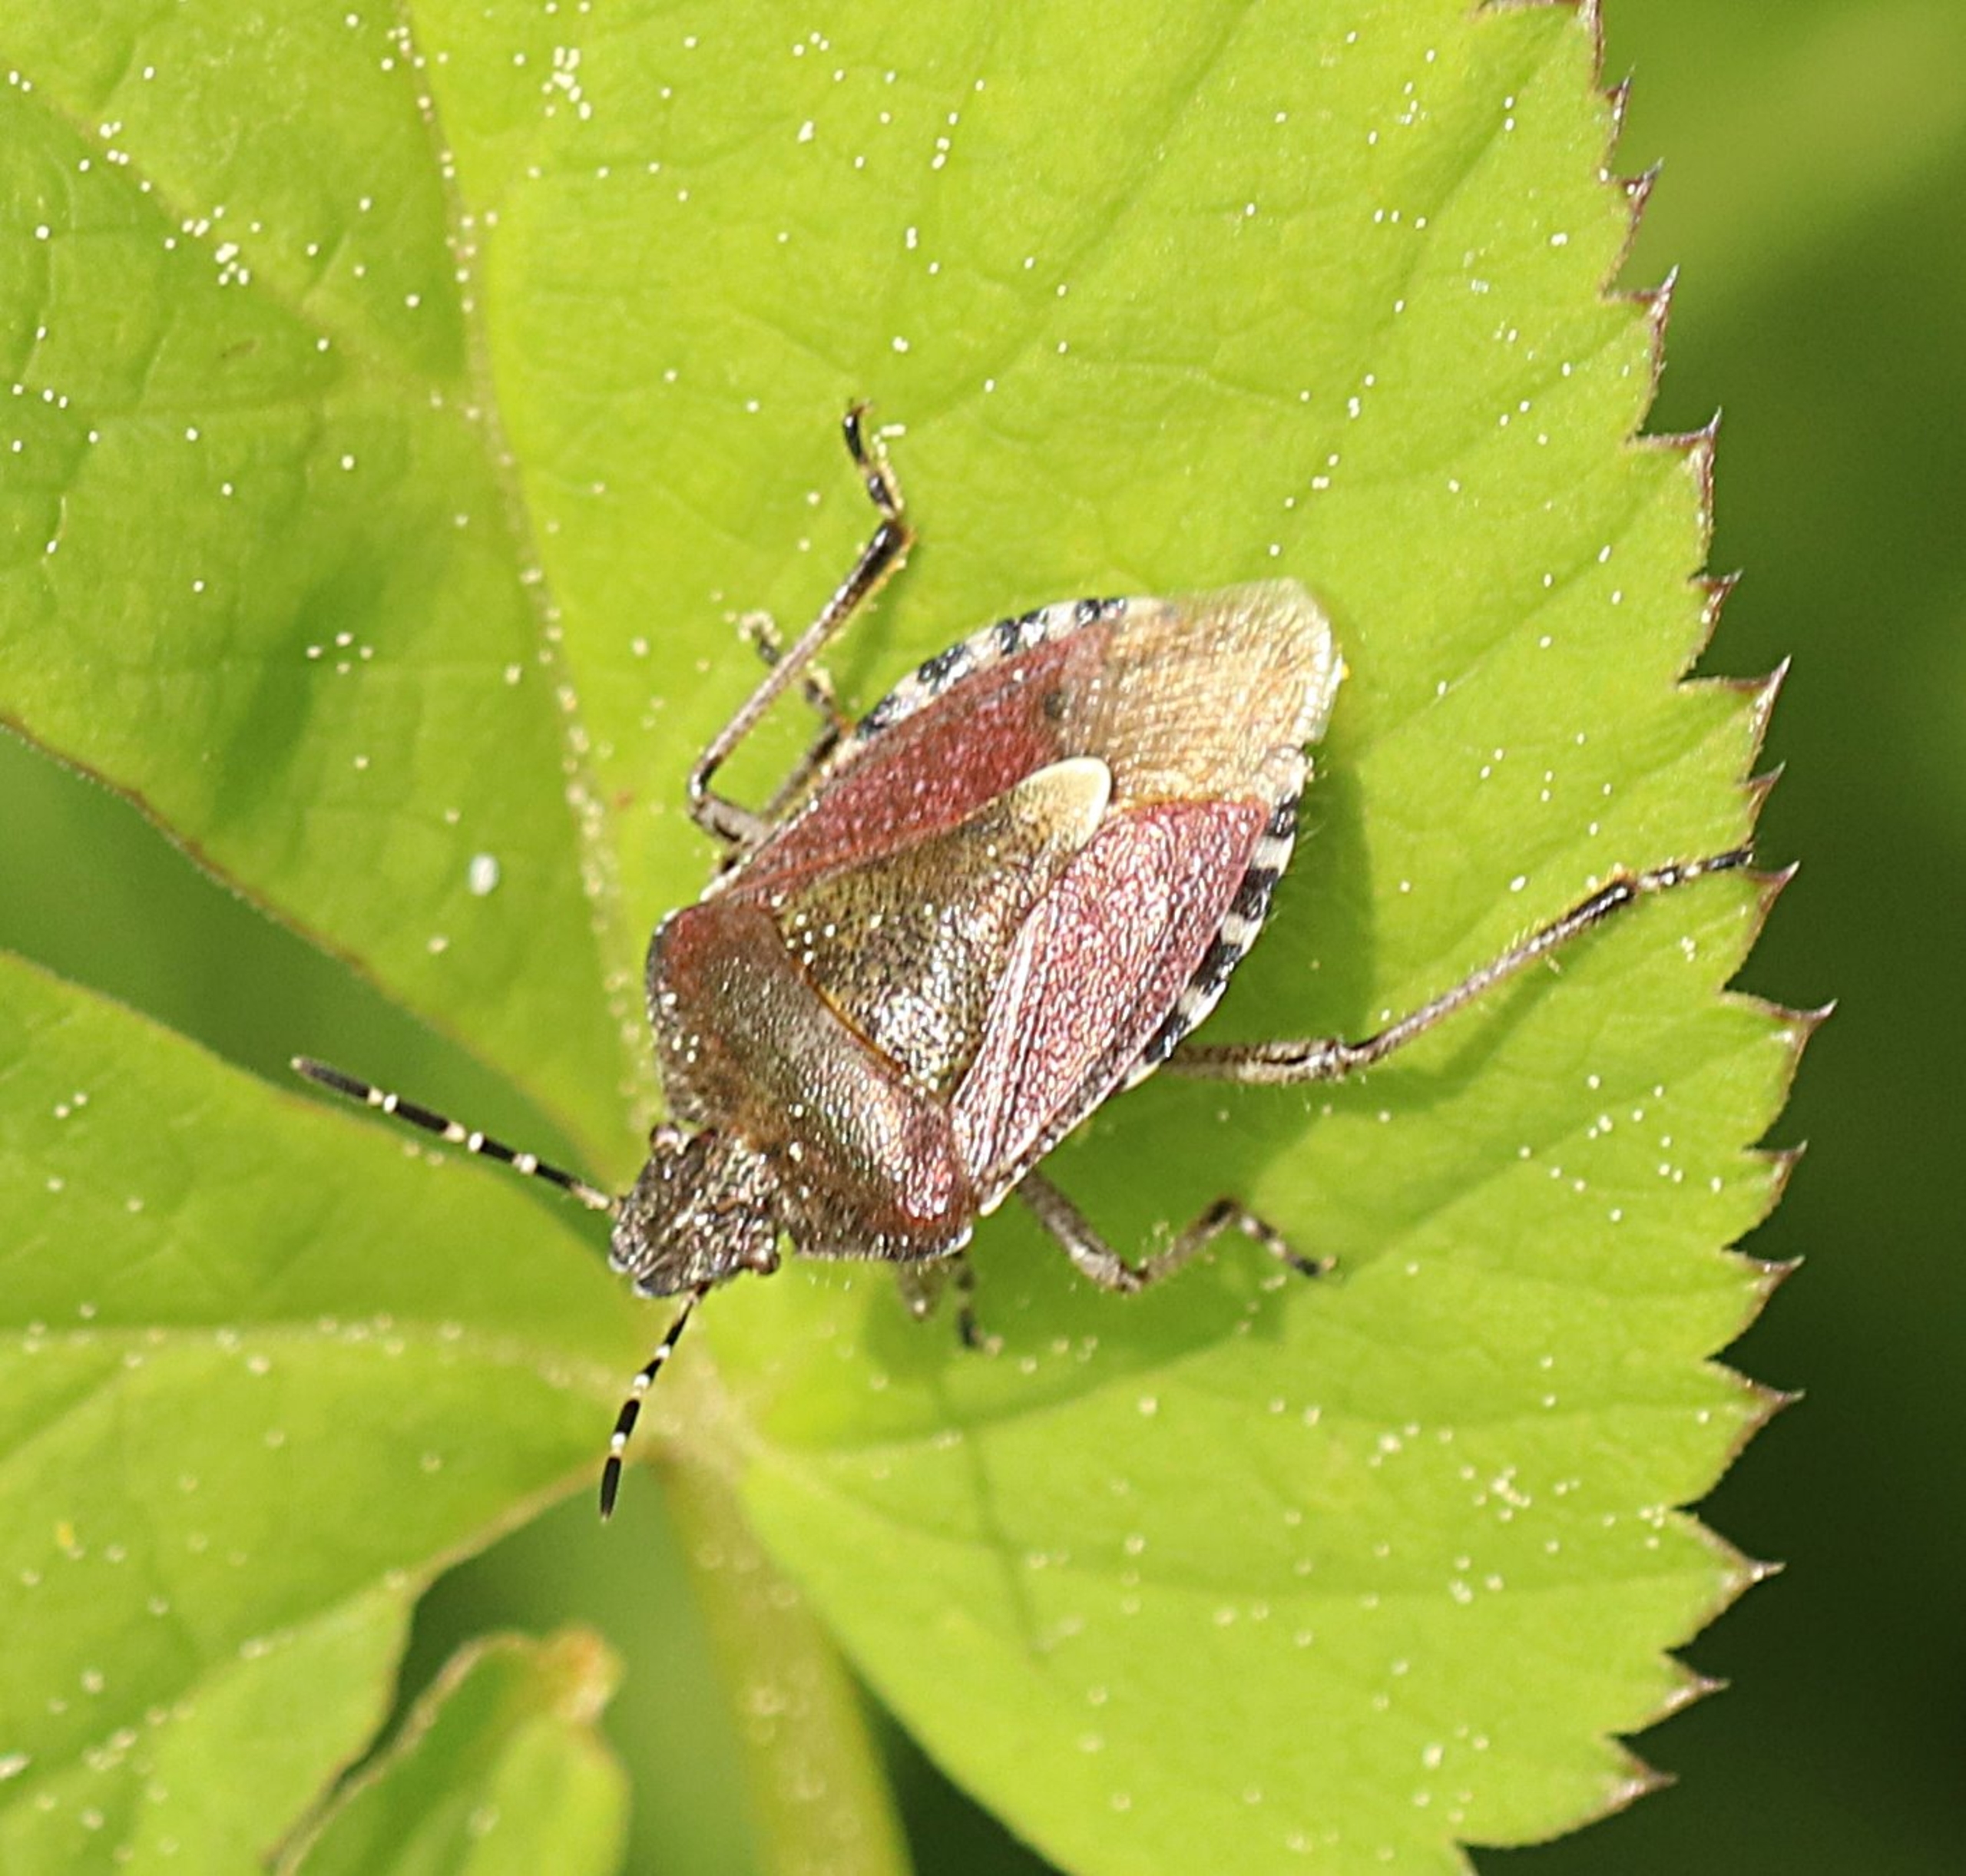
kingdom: Animalia
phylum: Arthropoda
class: Insecta
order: Hemiptera
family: Pentatomidae
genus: Dolycoris
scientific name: Dolycoris baccarum
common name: Almindelig bærtæge
